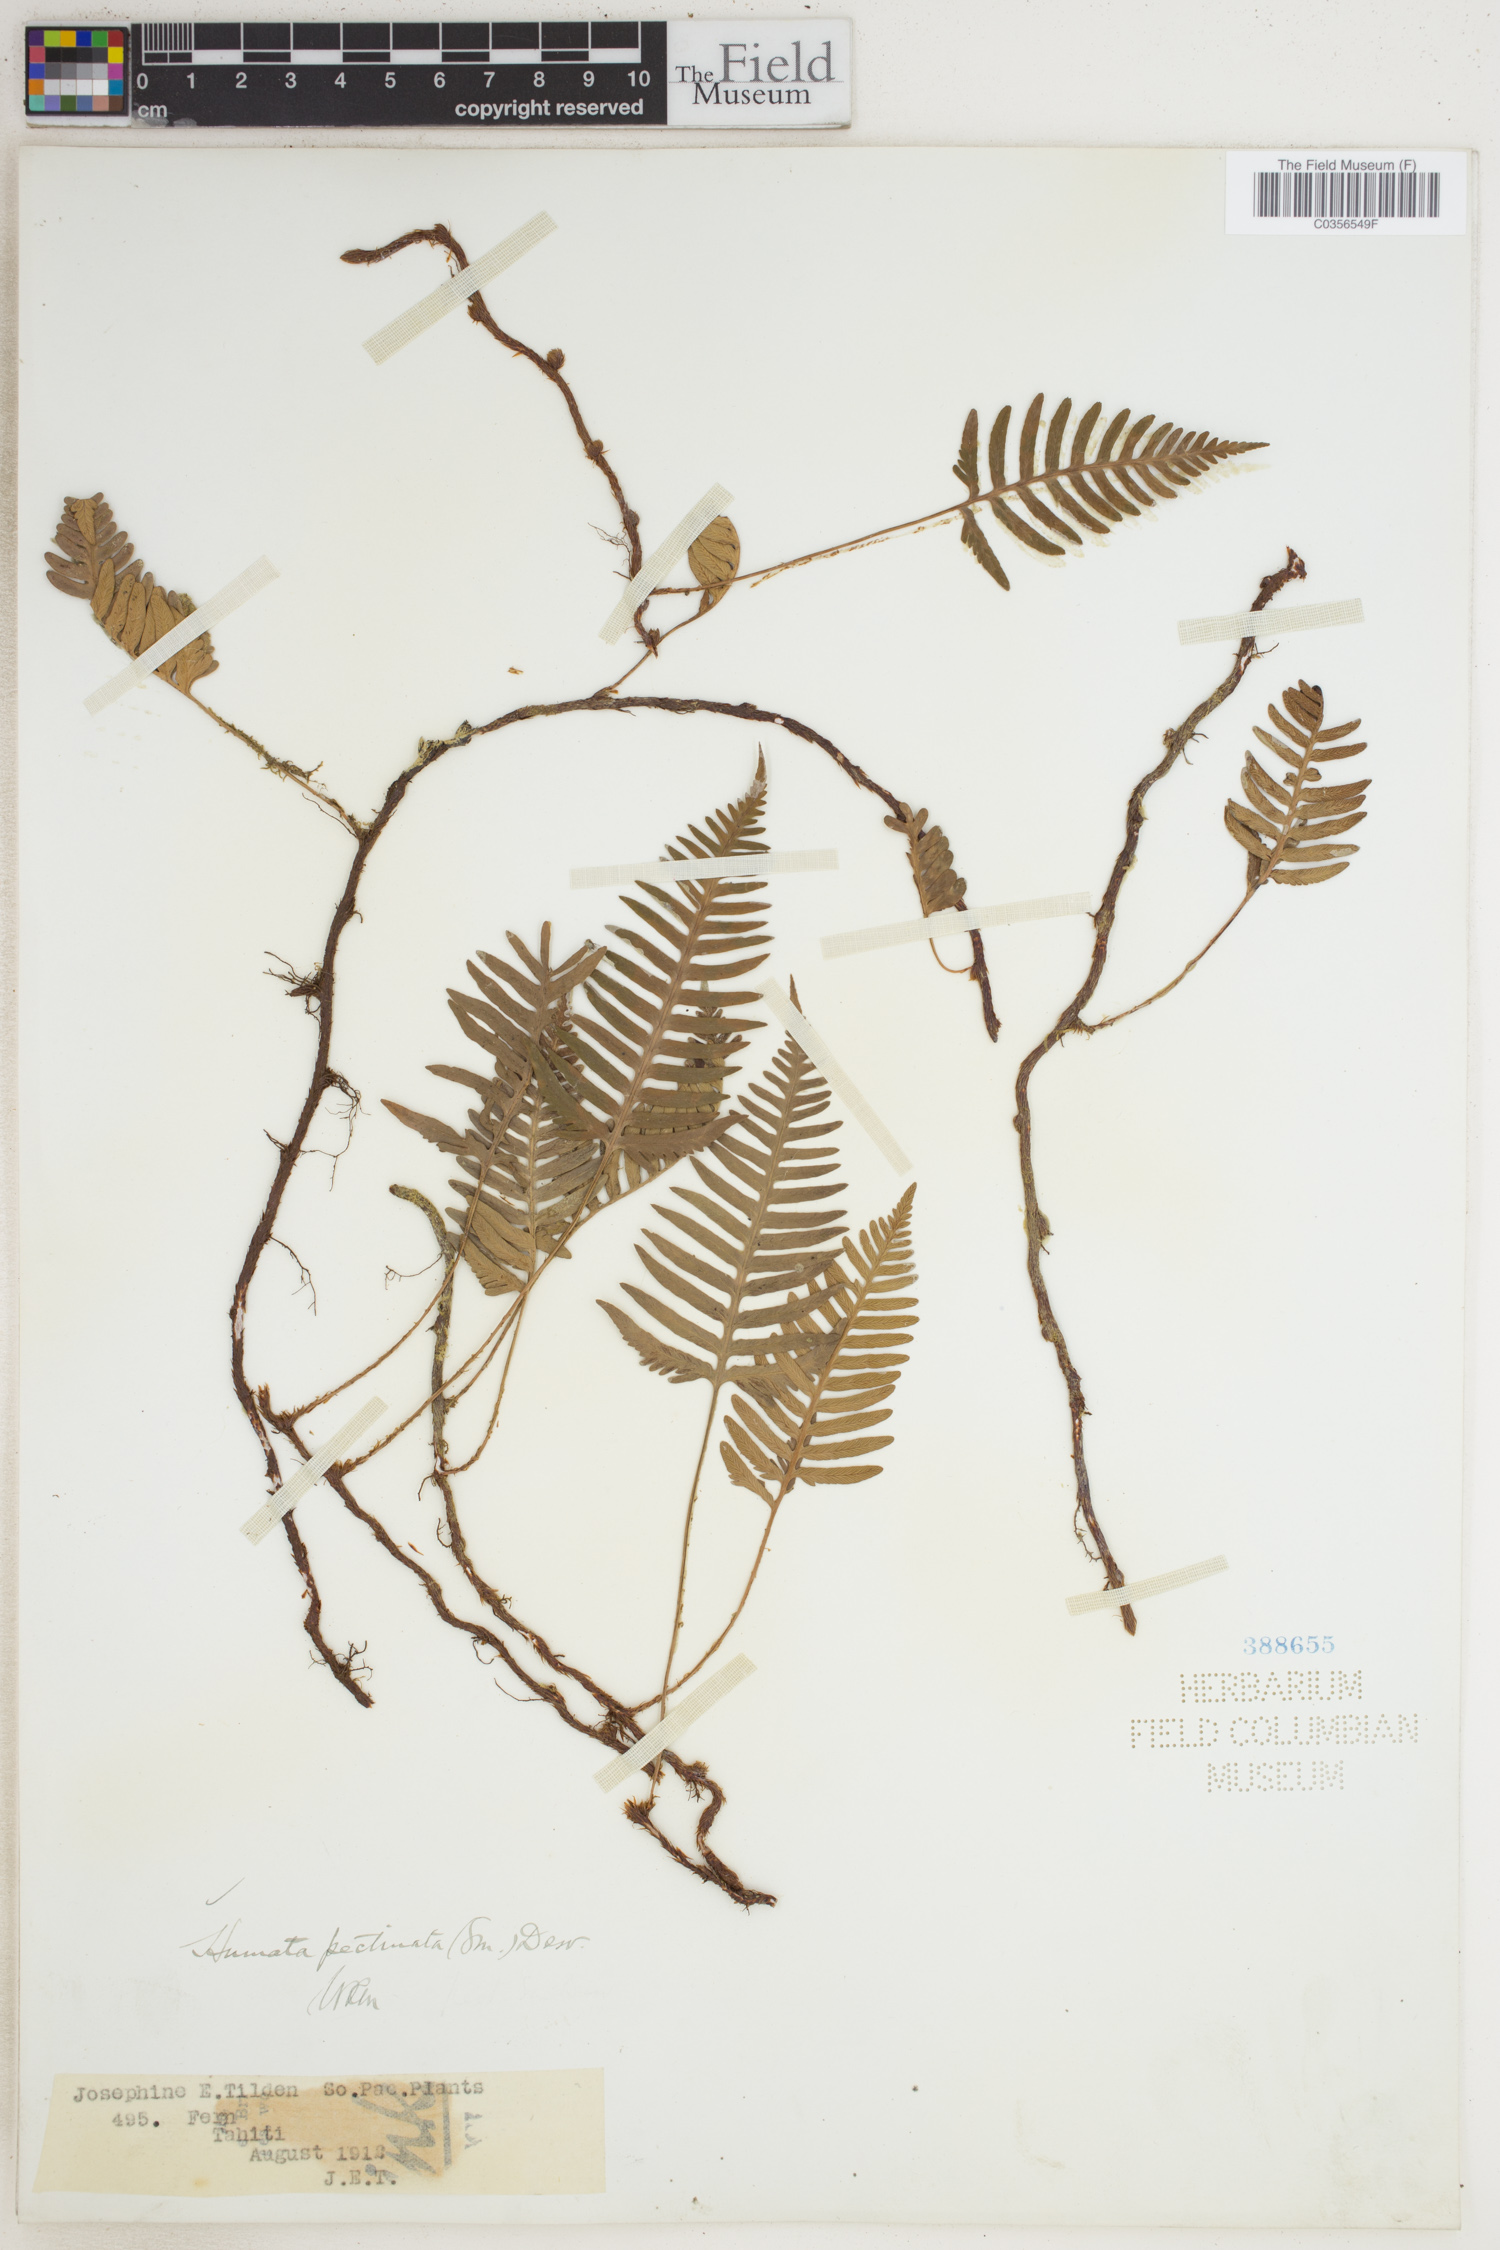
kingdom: Plantae
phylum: Tracheophyta
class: Polypodiopsida
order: Polypodiales
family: Davalliaceae
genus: Davallia
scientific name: Davallia pectinata
